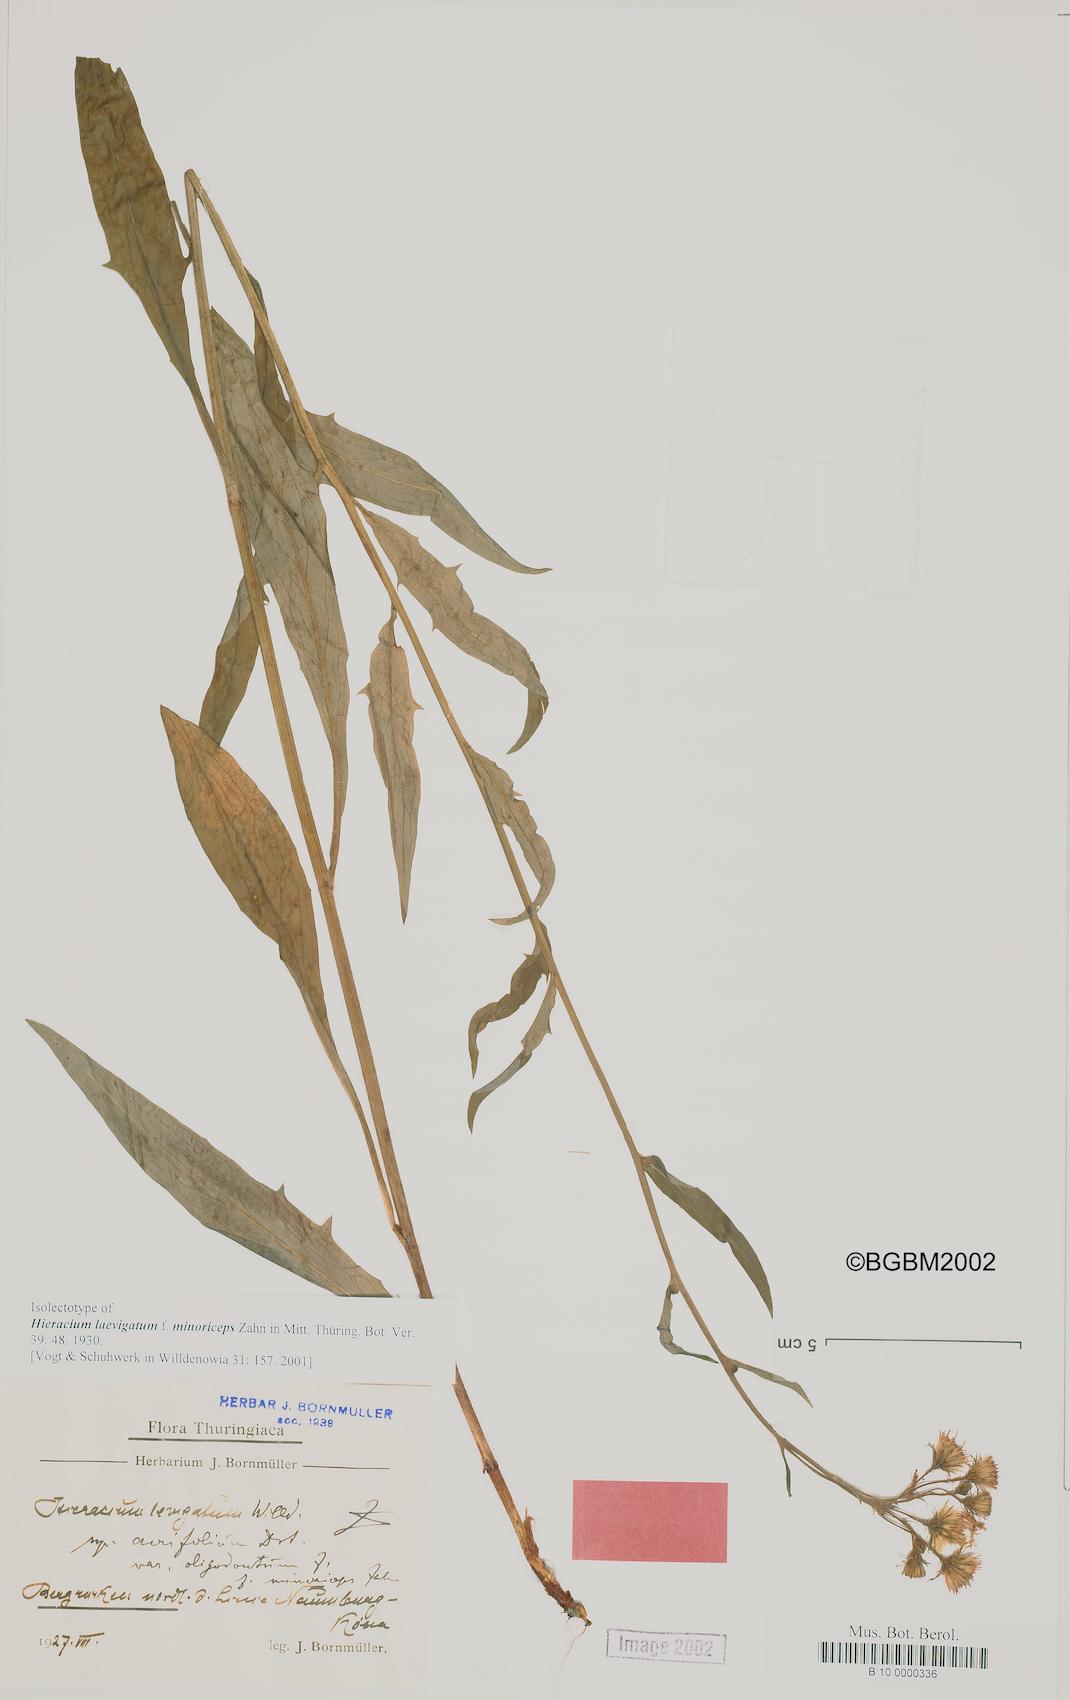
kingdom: Plantae
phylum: Tracheophyta
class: Magnoliopsida
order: Asterales
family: Asteraceae
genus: Hieracium
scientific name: Hieracium laevigatum
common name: Smooth hawkweed
